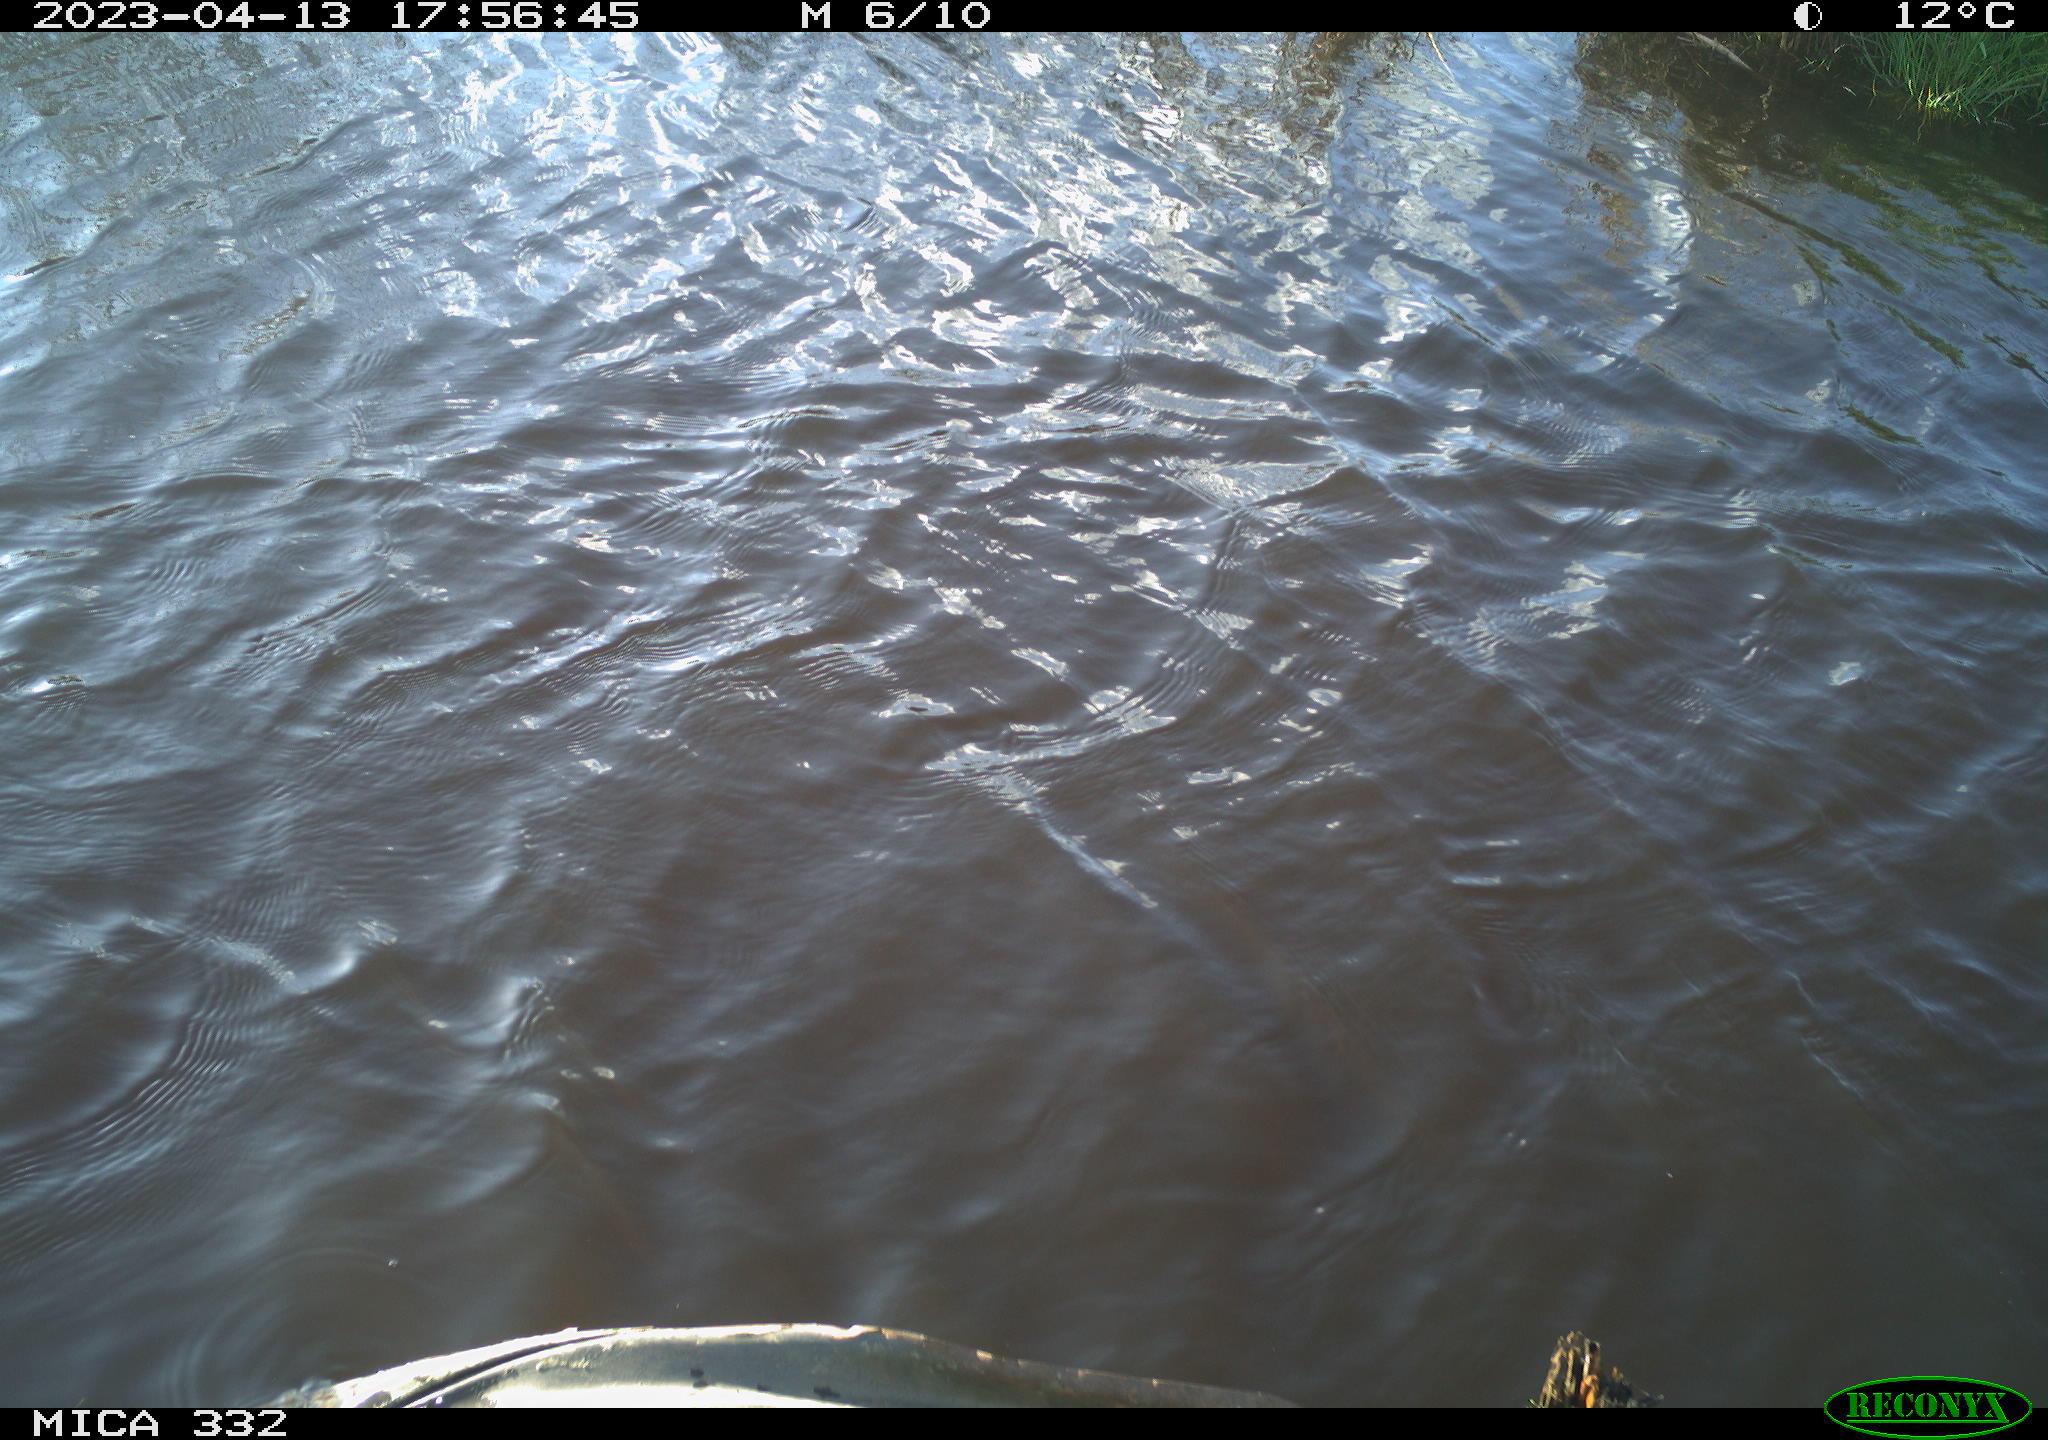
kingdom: Animalia
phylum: Chordata
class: Aves
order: Anseriformes
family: Anatidae
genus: Anas
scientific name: Anas
